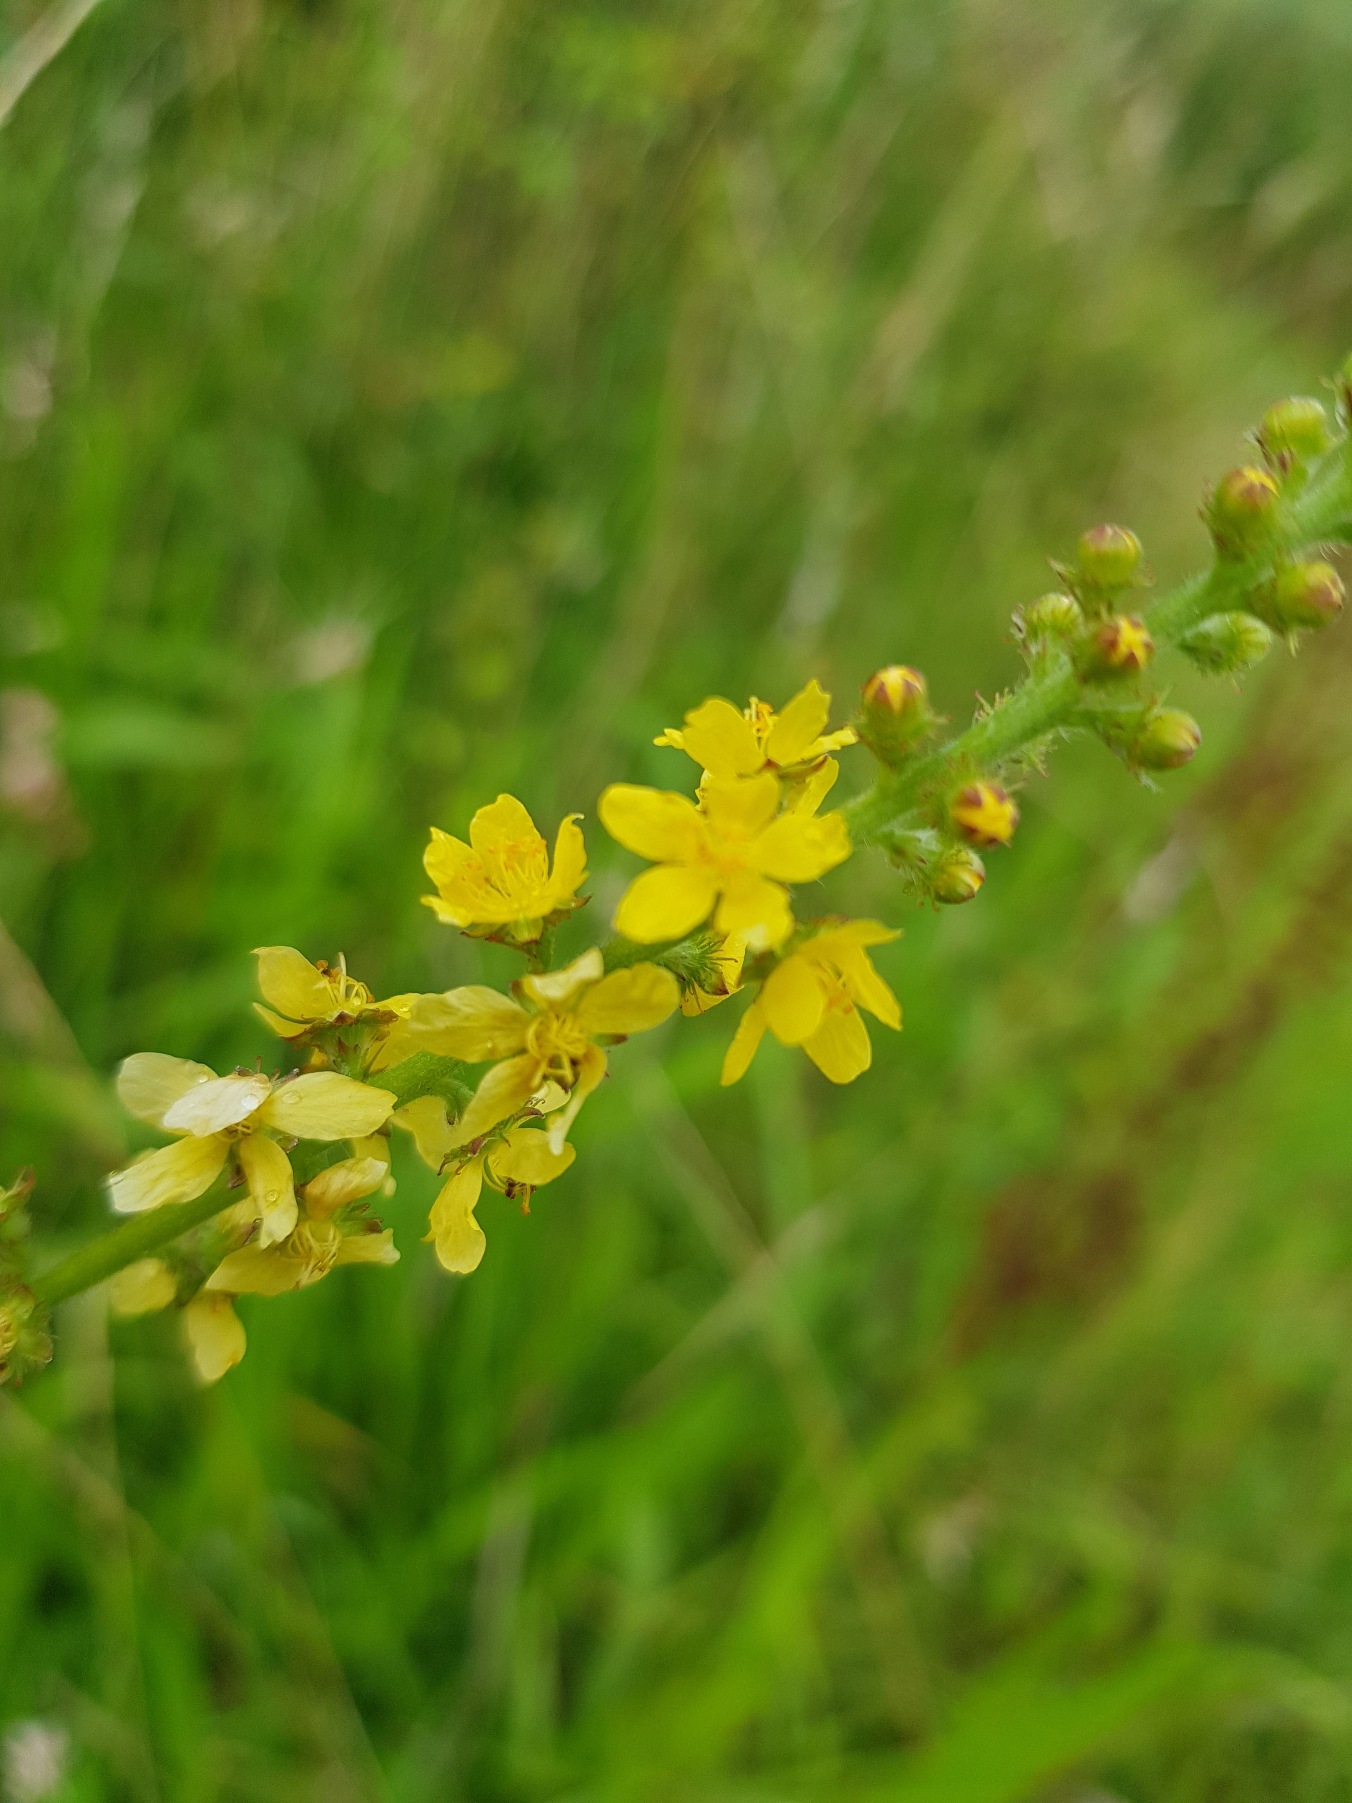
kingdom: Plantae
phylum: Tracheophyta
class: Magnoliopsida
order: Rosales
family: Rosaceae
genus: Agrimonia
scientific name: Agrimonia eupatoria
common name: Almindelig agermåne
